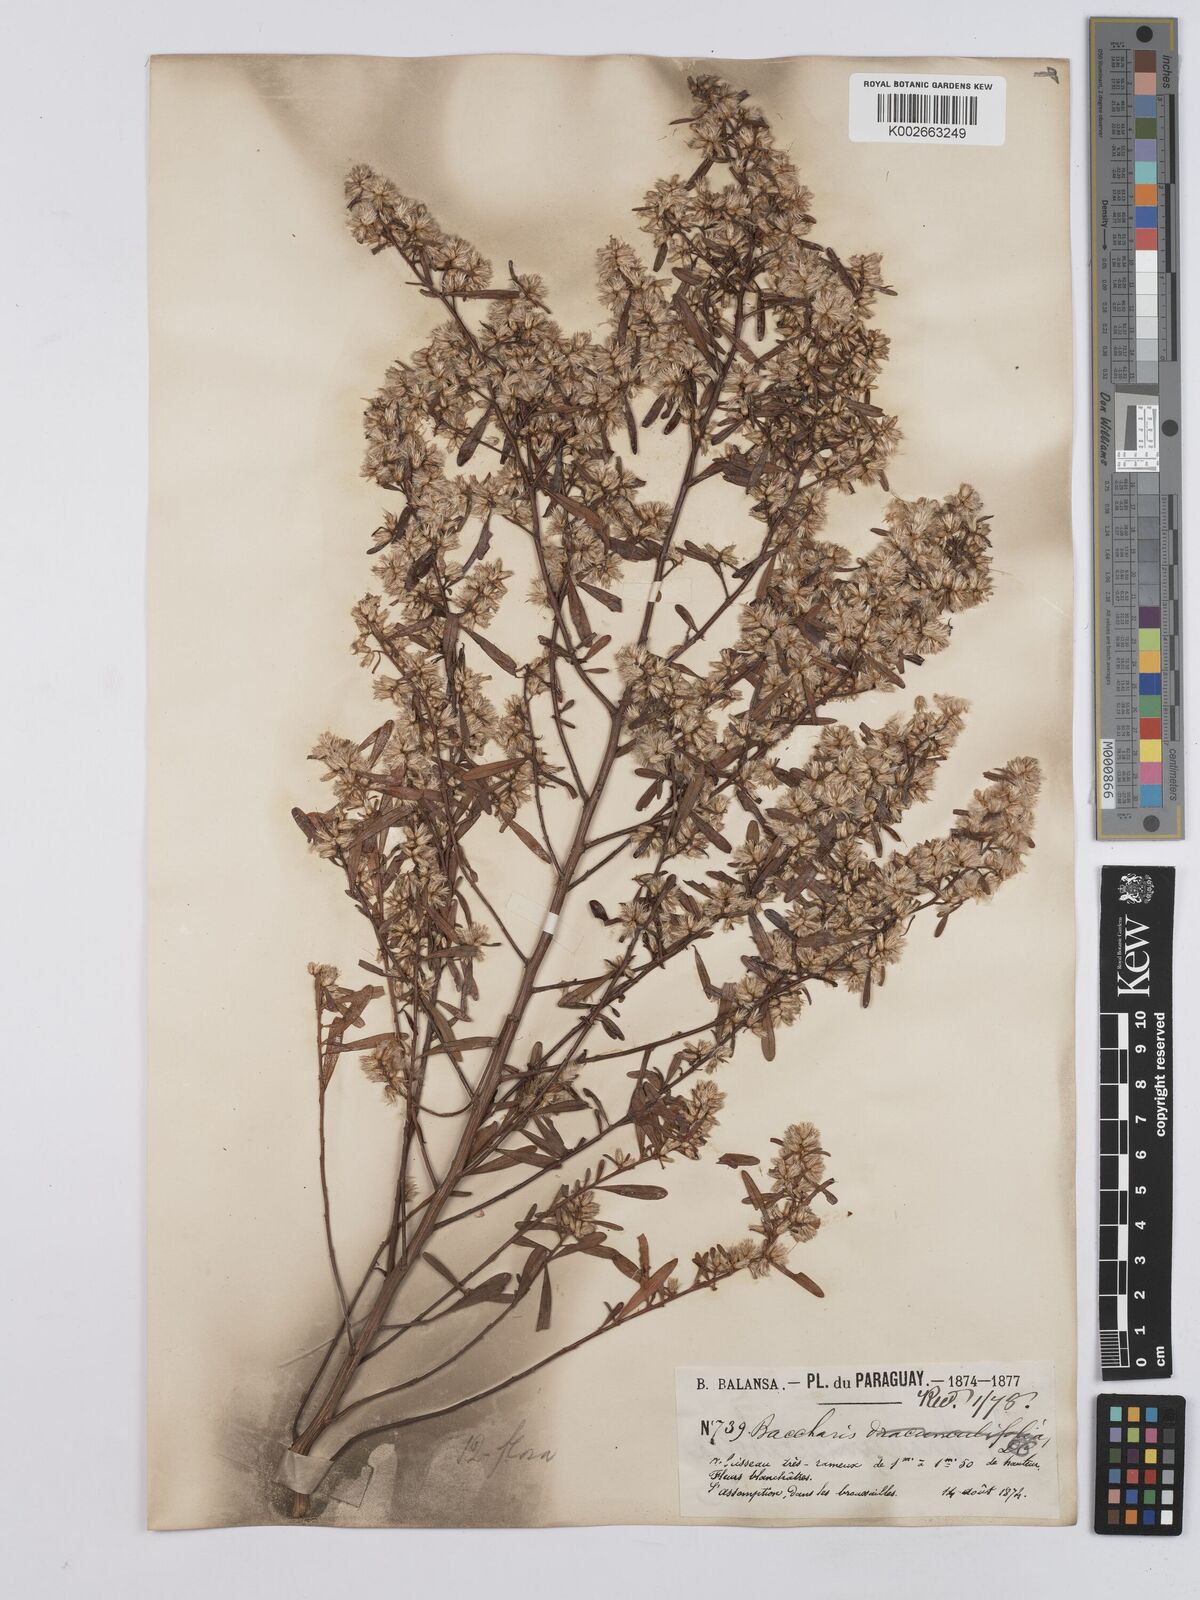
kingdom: Plantae
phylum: Tracheophyta
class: Magnoliopsida
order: Asterales
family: Asteraceae
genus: Baccharis
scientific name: Baccharis varians
